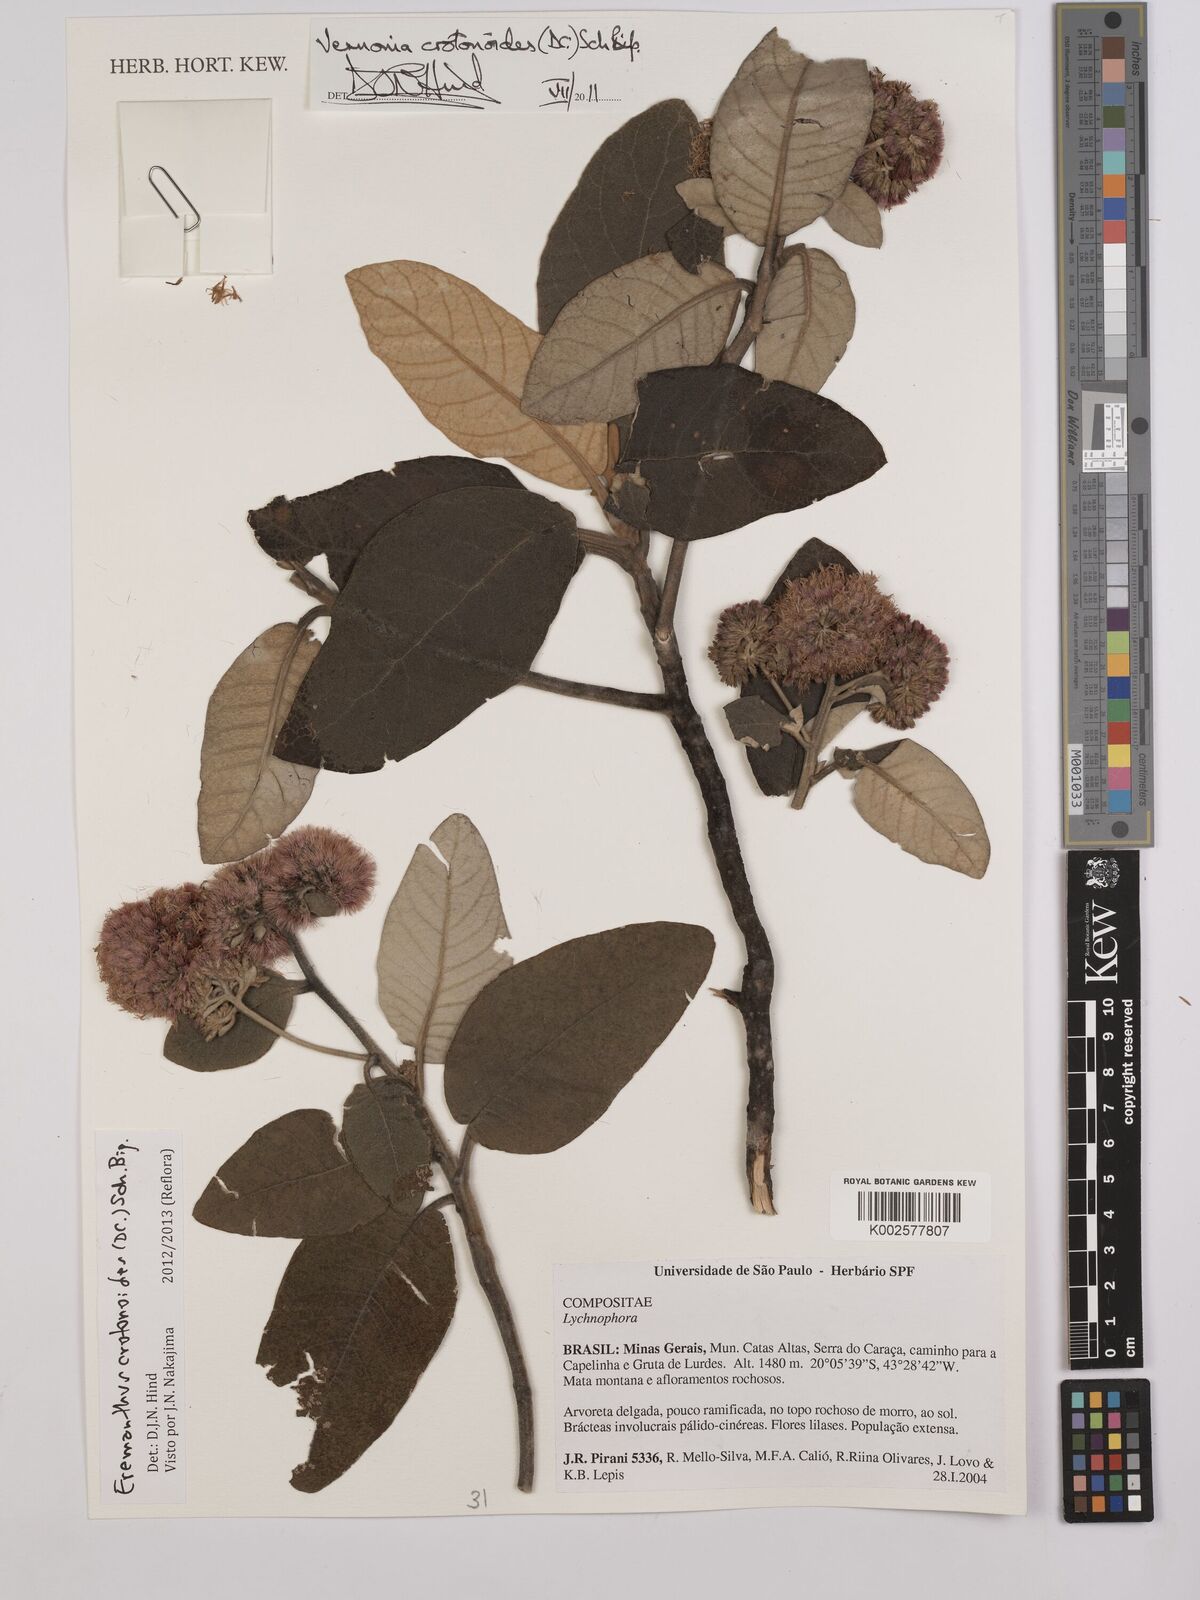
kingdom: Plantae
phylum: Tracheophyta
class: Magnoliopsida
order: Asterales
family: Asteraceae
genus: Eremanthus
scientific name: Eremanthus crotonoides
